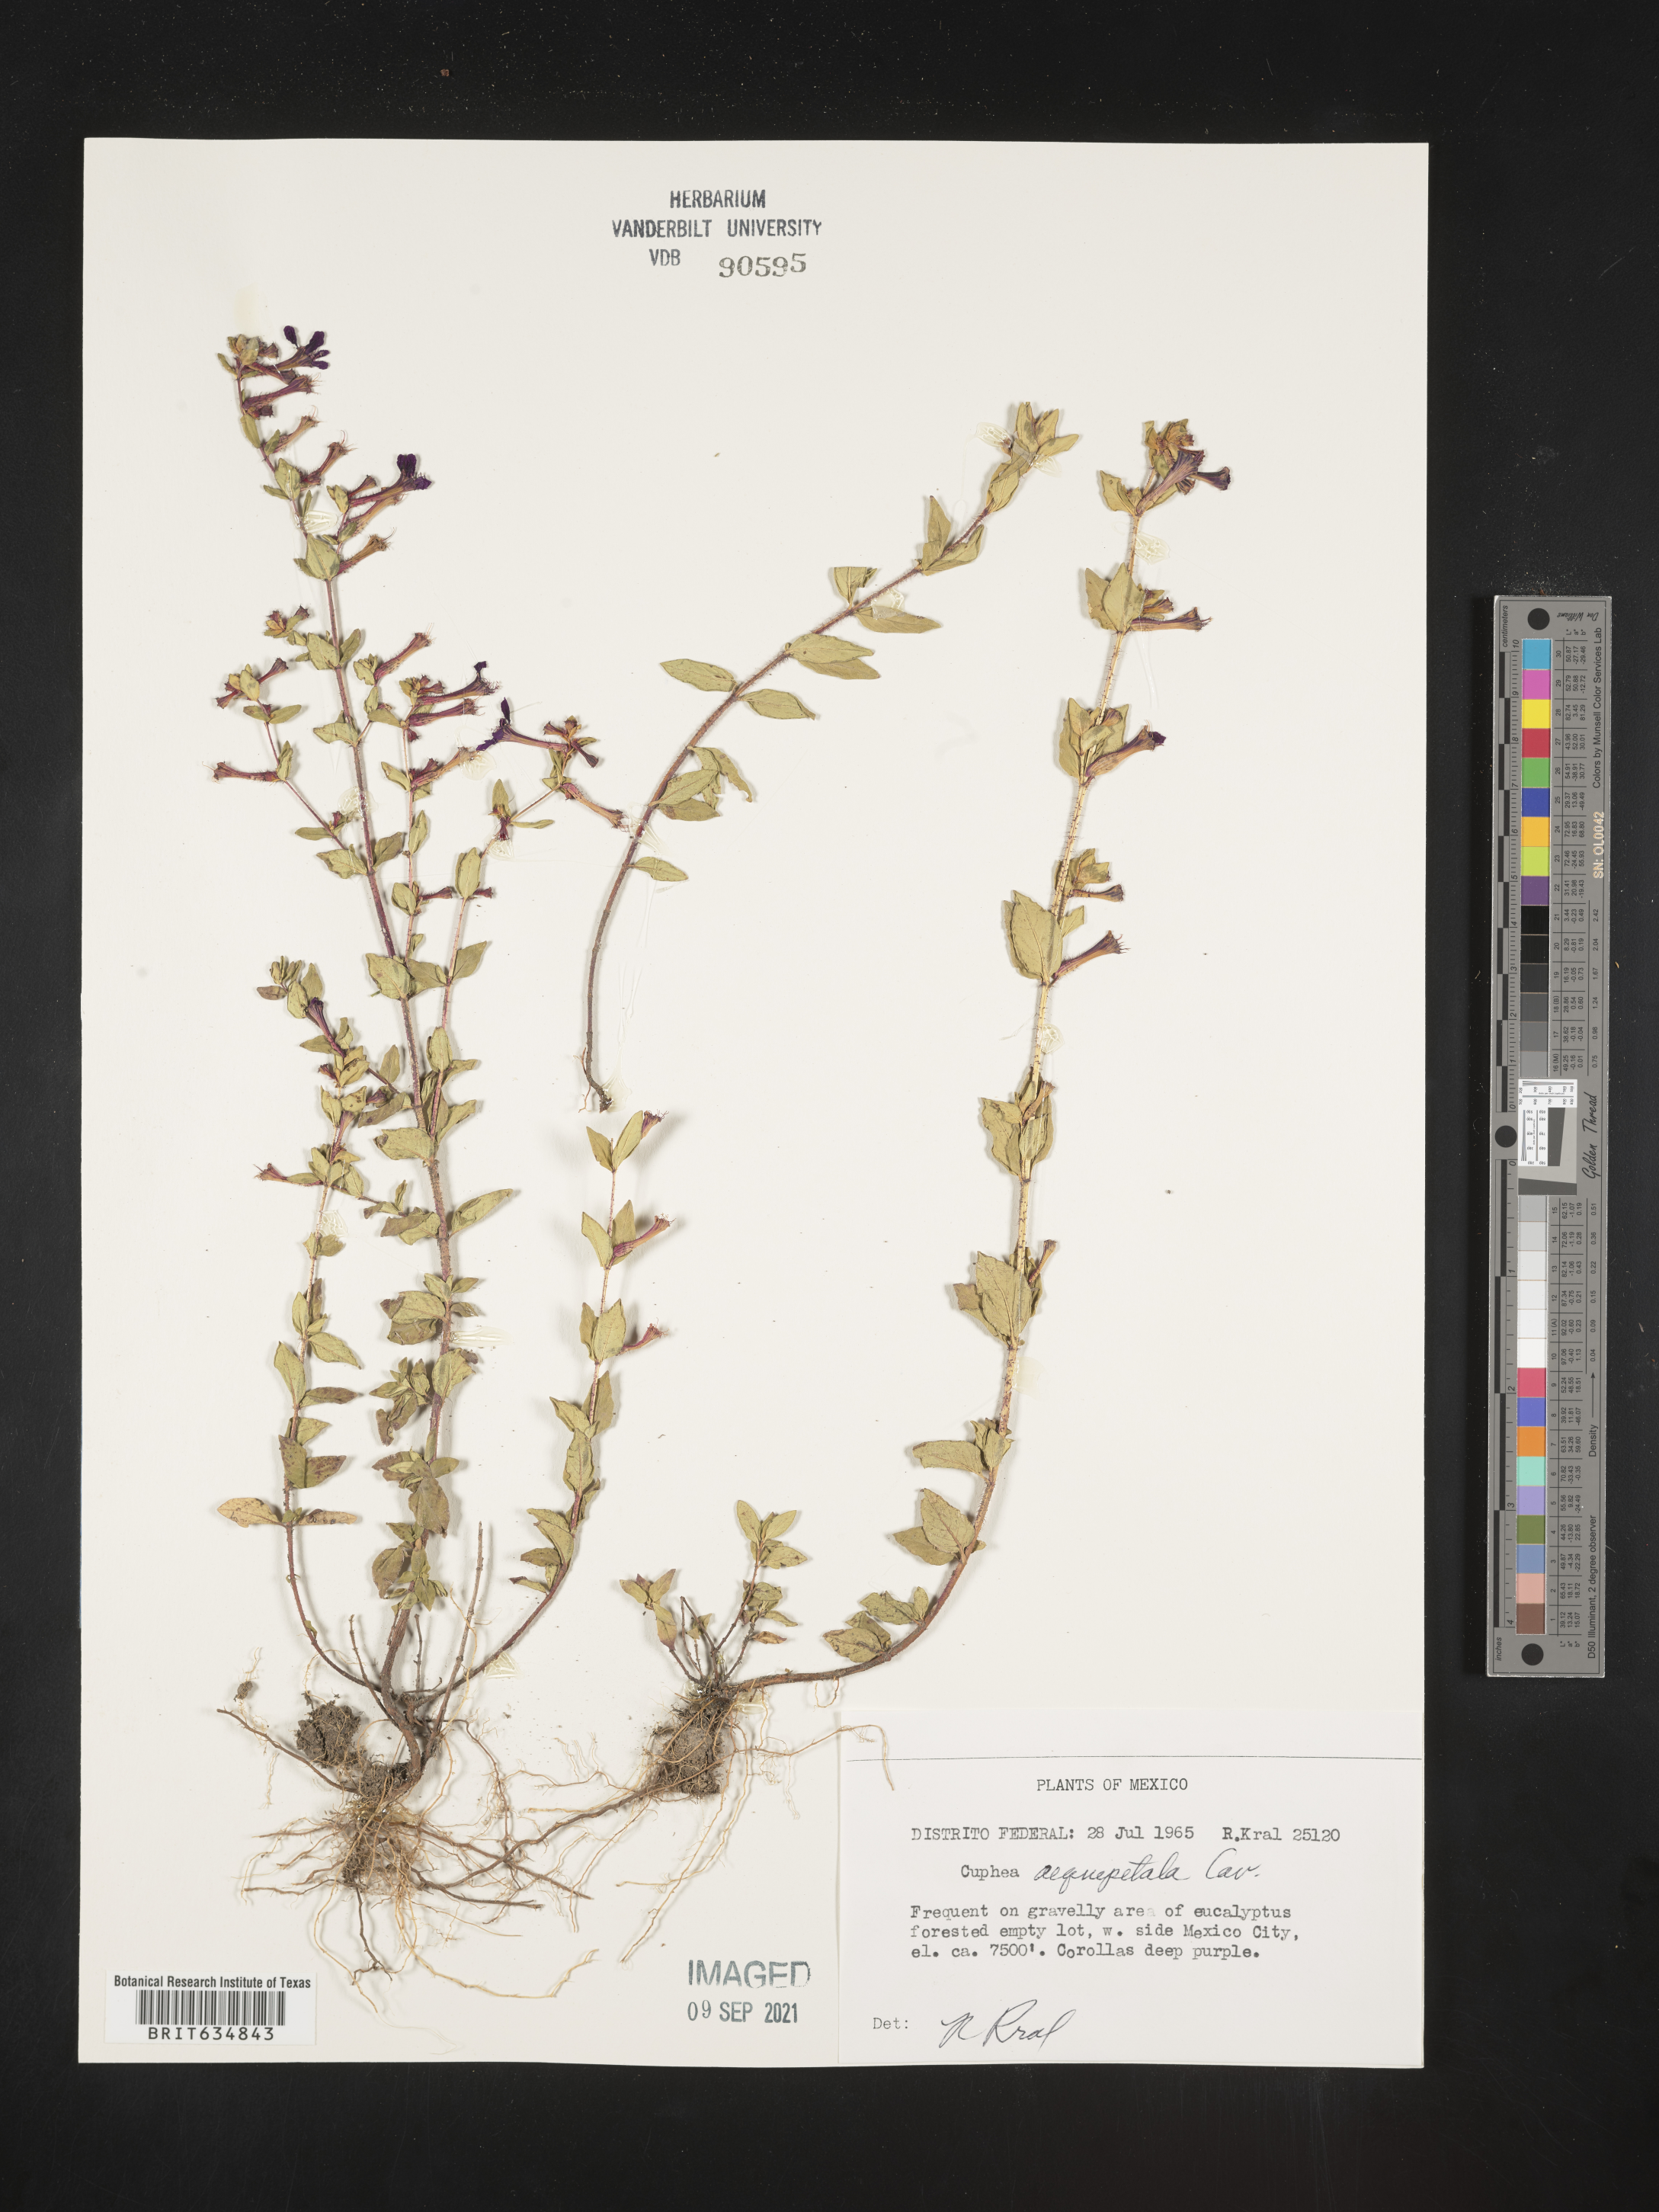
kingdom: Plantae
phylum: Tracheophyta
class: Magnoliopsida
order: Myrtales
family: Lythraceae
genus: Cuphea
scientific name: Cuphea
